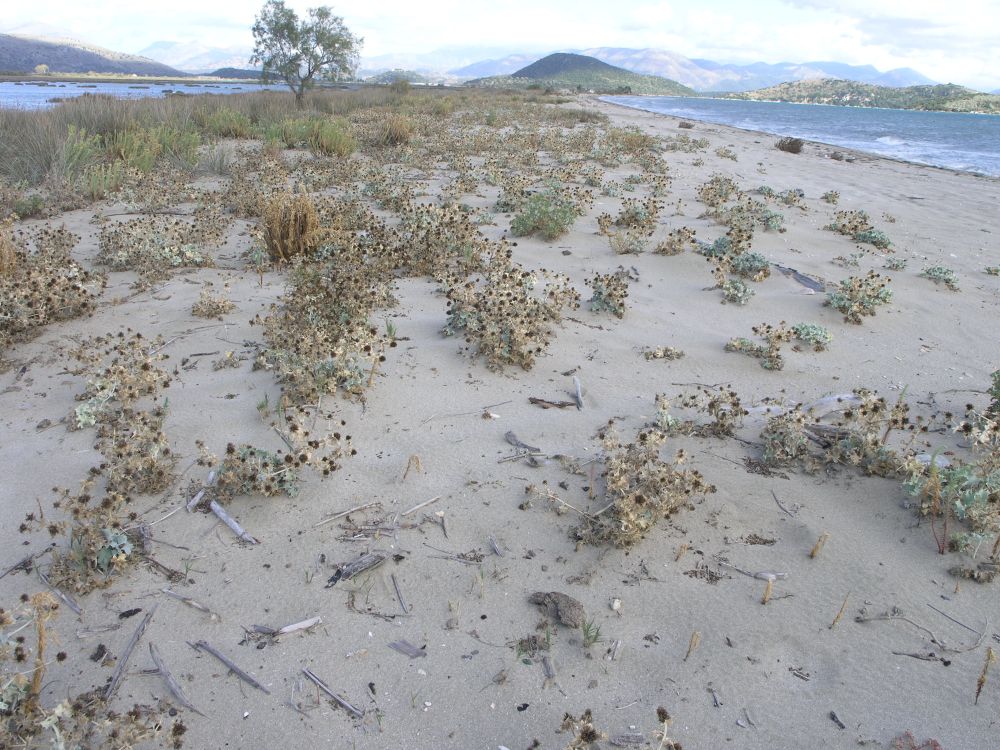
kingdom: Plantae
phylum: Tracheophyta
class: Magnoliopsida
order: Apiales
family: Apiaceae
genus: Eryngium
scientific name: Eryngium maritimum
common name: Sea-holly
